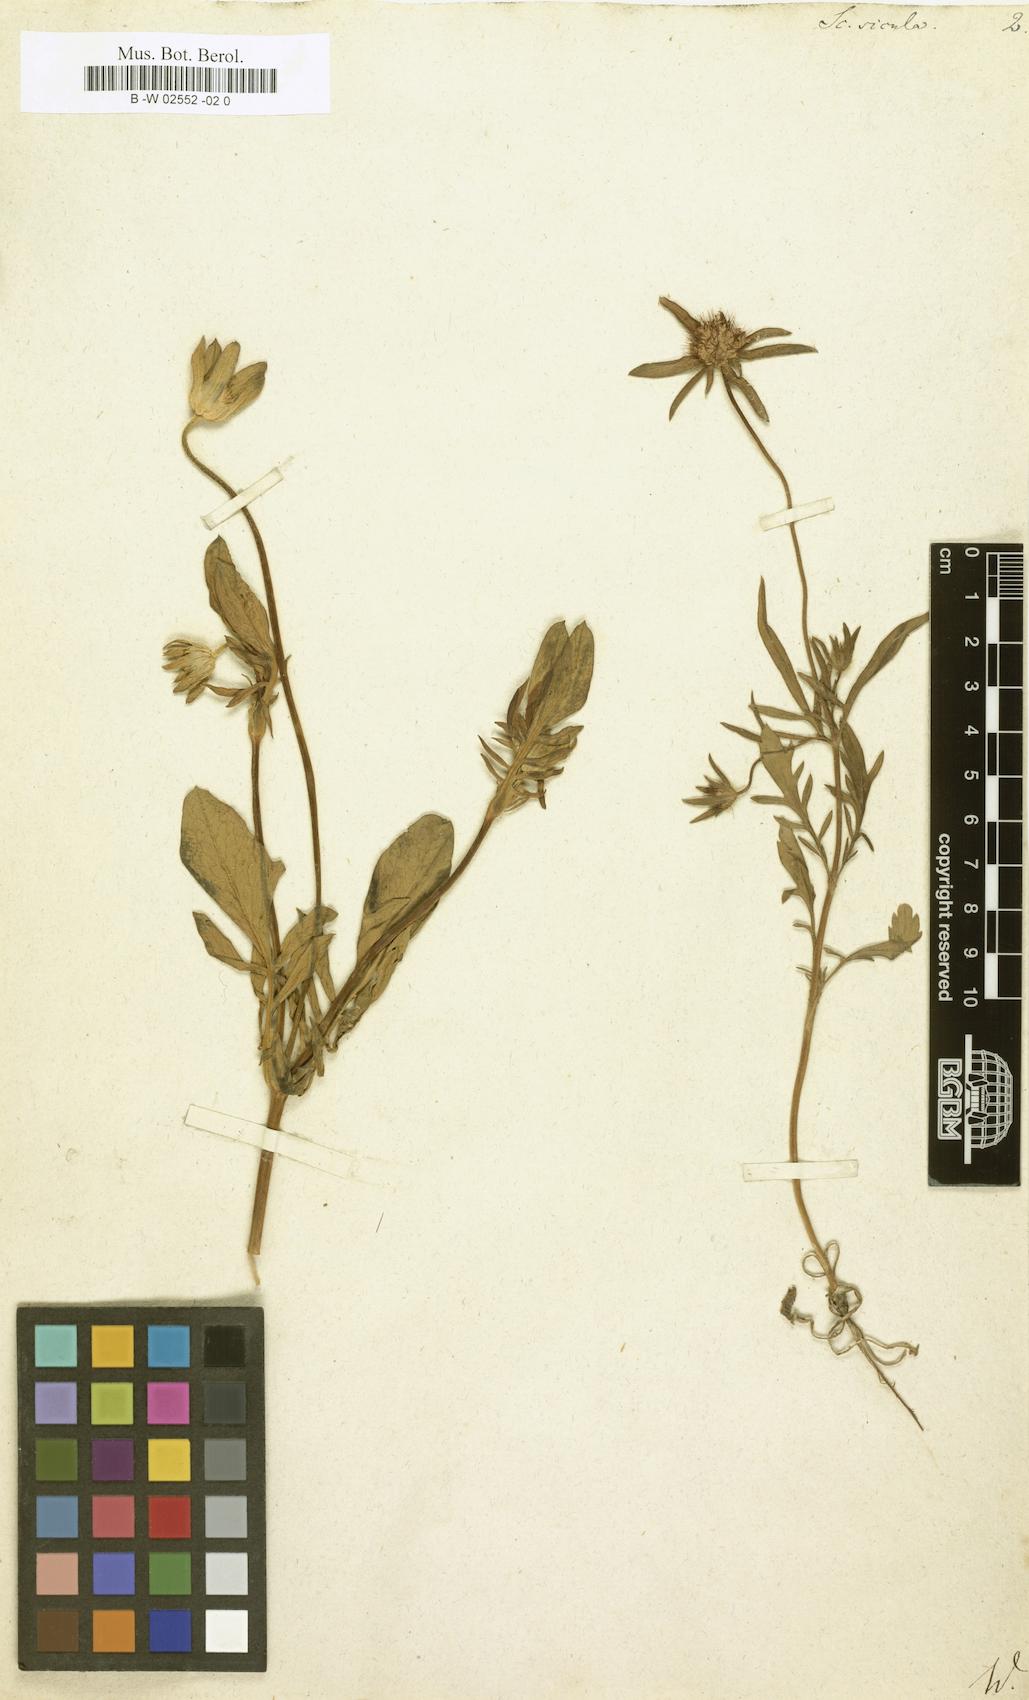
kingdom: Plantae
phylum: Tracheophyta
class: Magnoliopsida
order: Dipsacales
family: Caprifoliaceae
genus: Lomelosia
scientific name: Lomelosia divaricata
